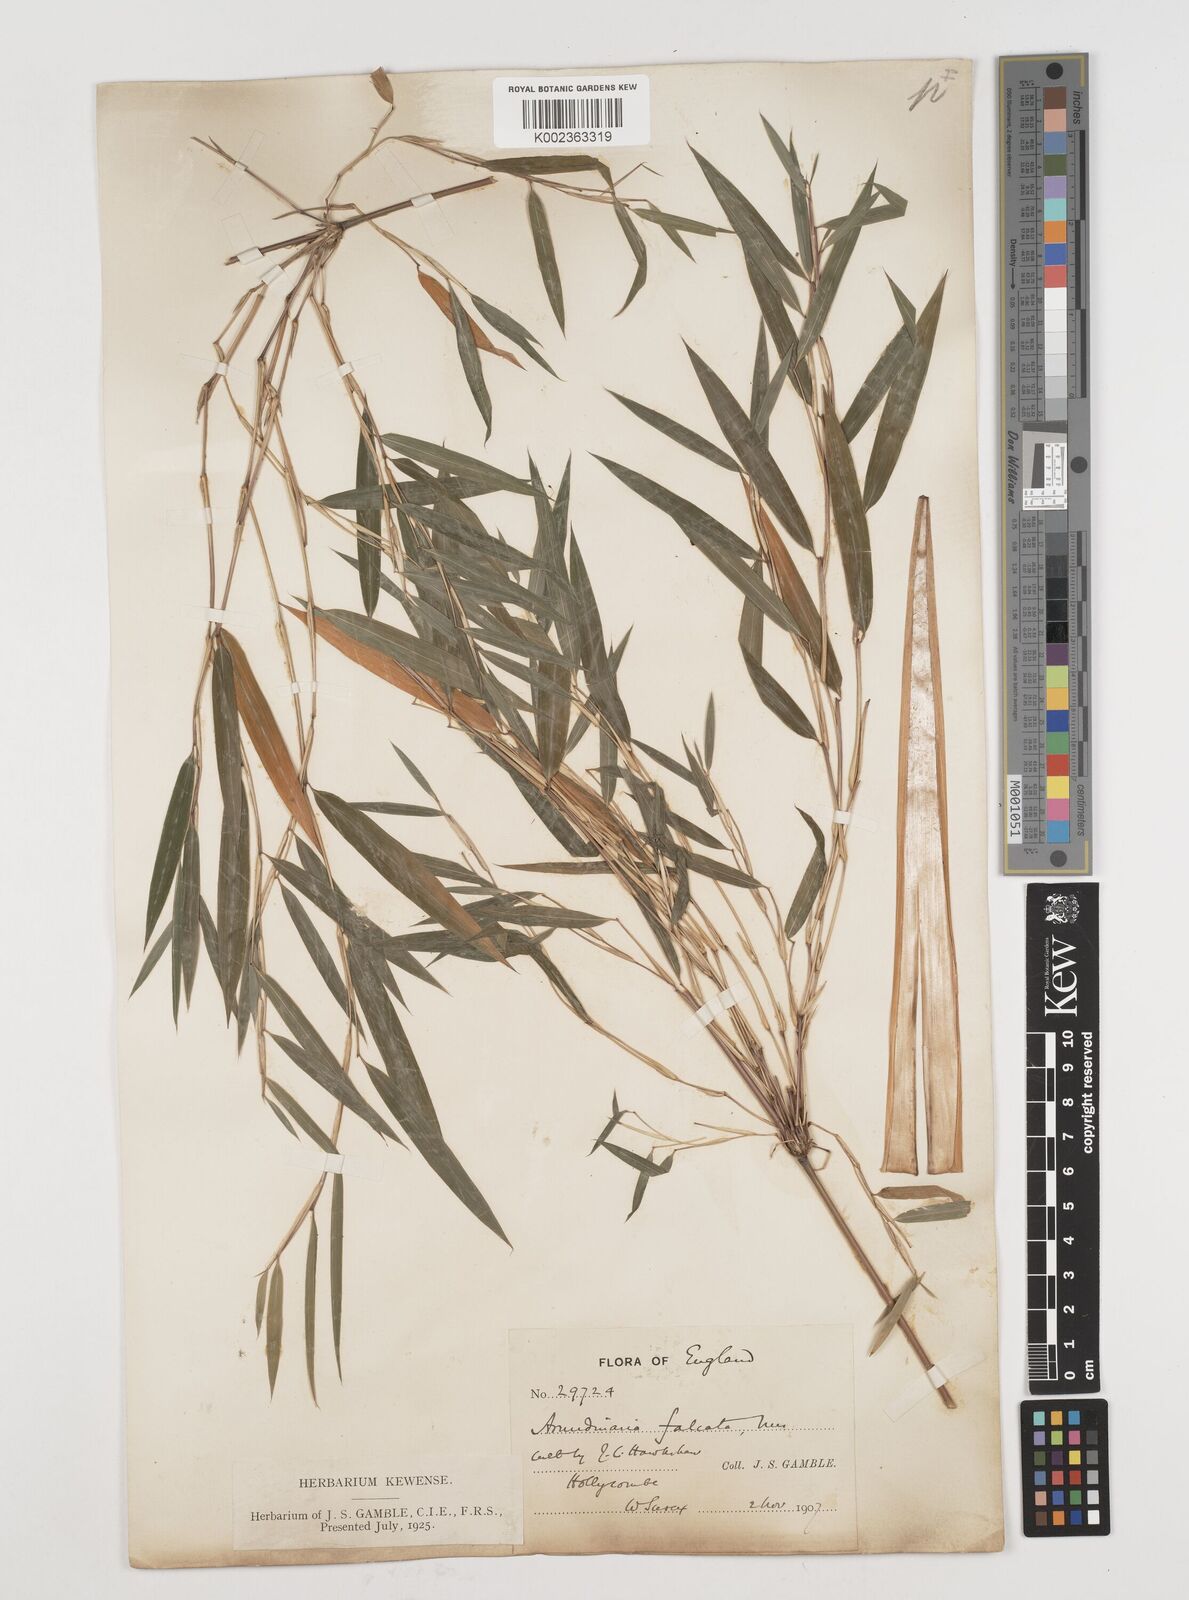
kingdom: Plantae
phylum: Tracheophyta
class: Liliopsida
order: Poales
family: Poaceae
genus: Himalayacalamus
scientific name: Himalayacalamus falconeri
